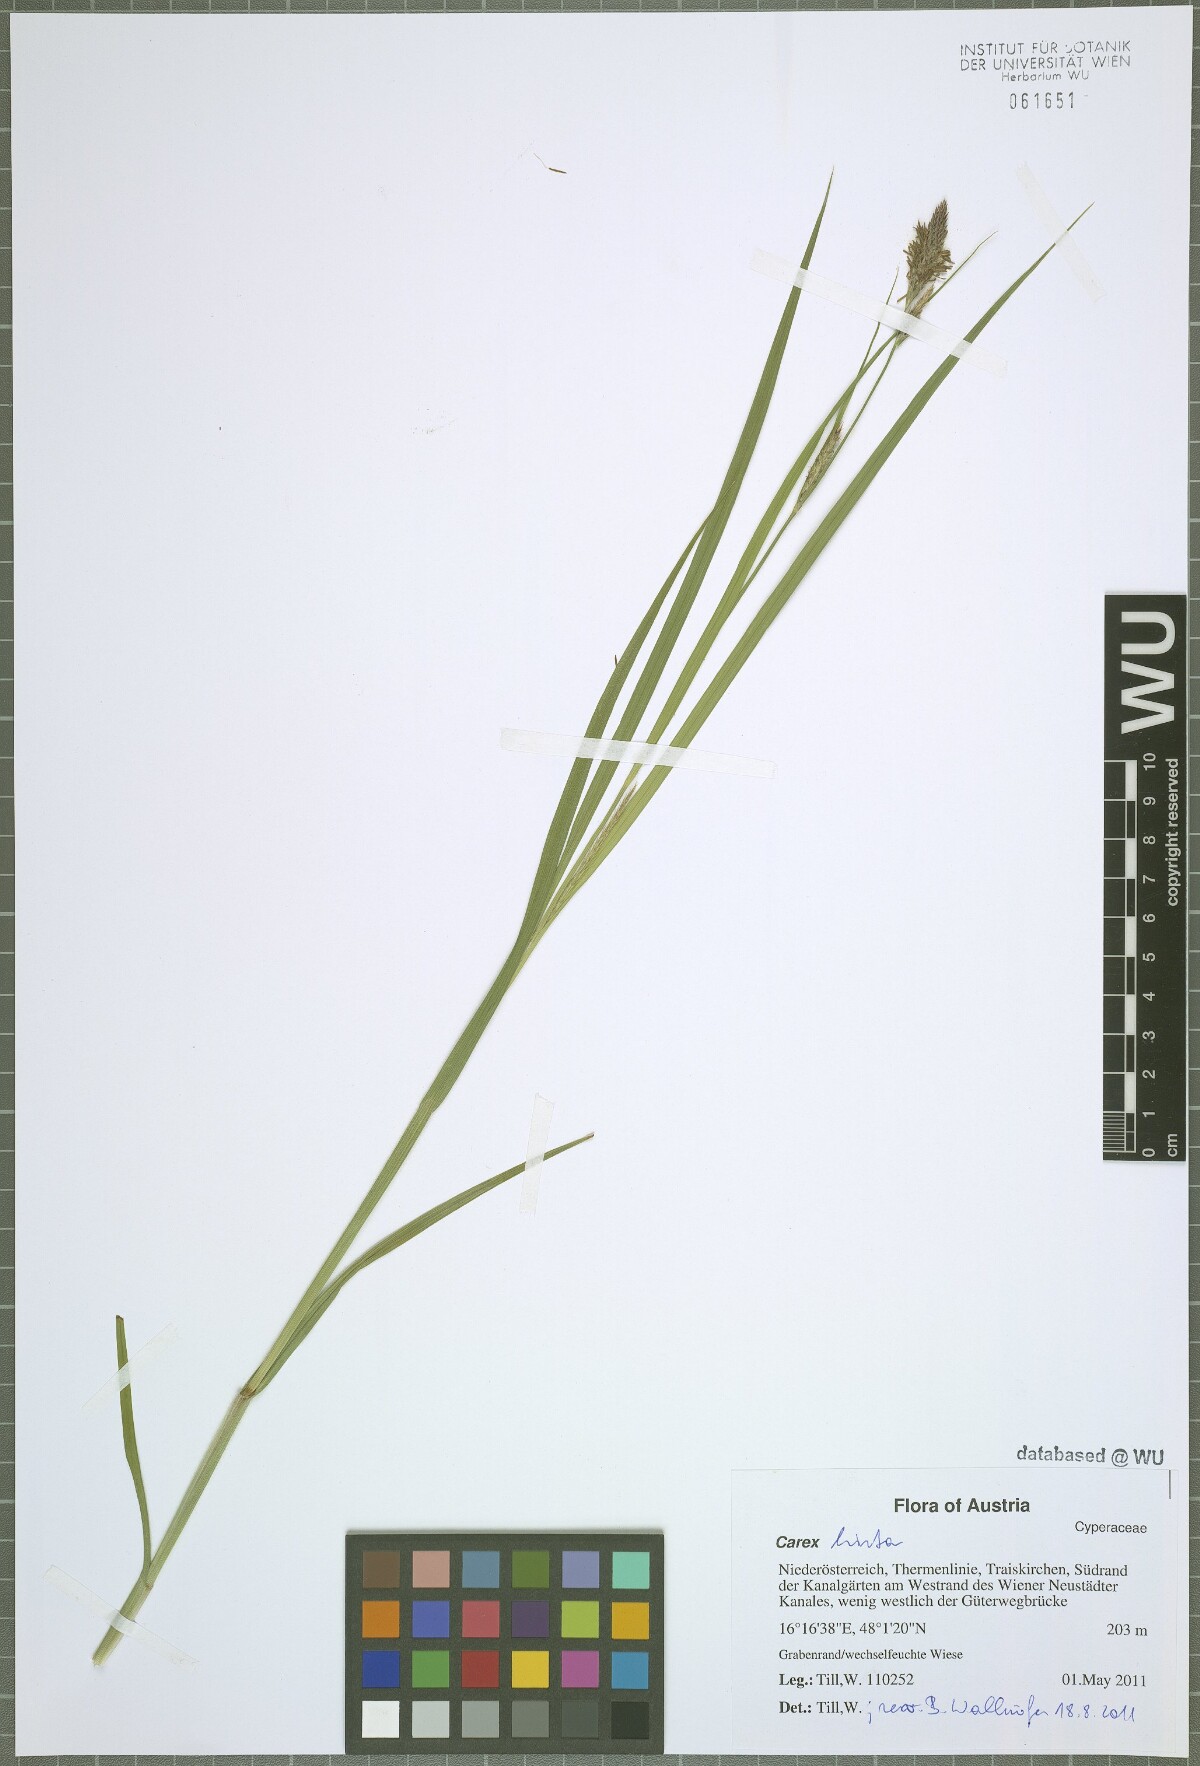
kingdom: Plantae
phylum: Tracheophyta
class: Liliopsida
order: Poales
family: Cyperaceae
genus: Carex
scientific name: Carex hirta
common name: Hairy sedge
